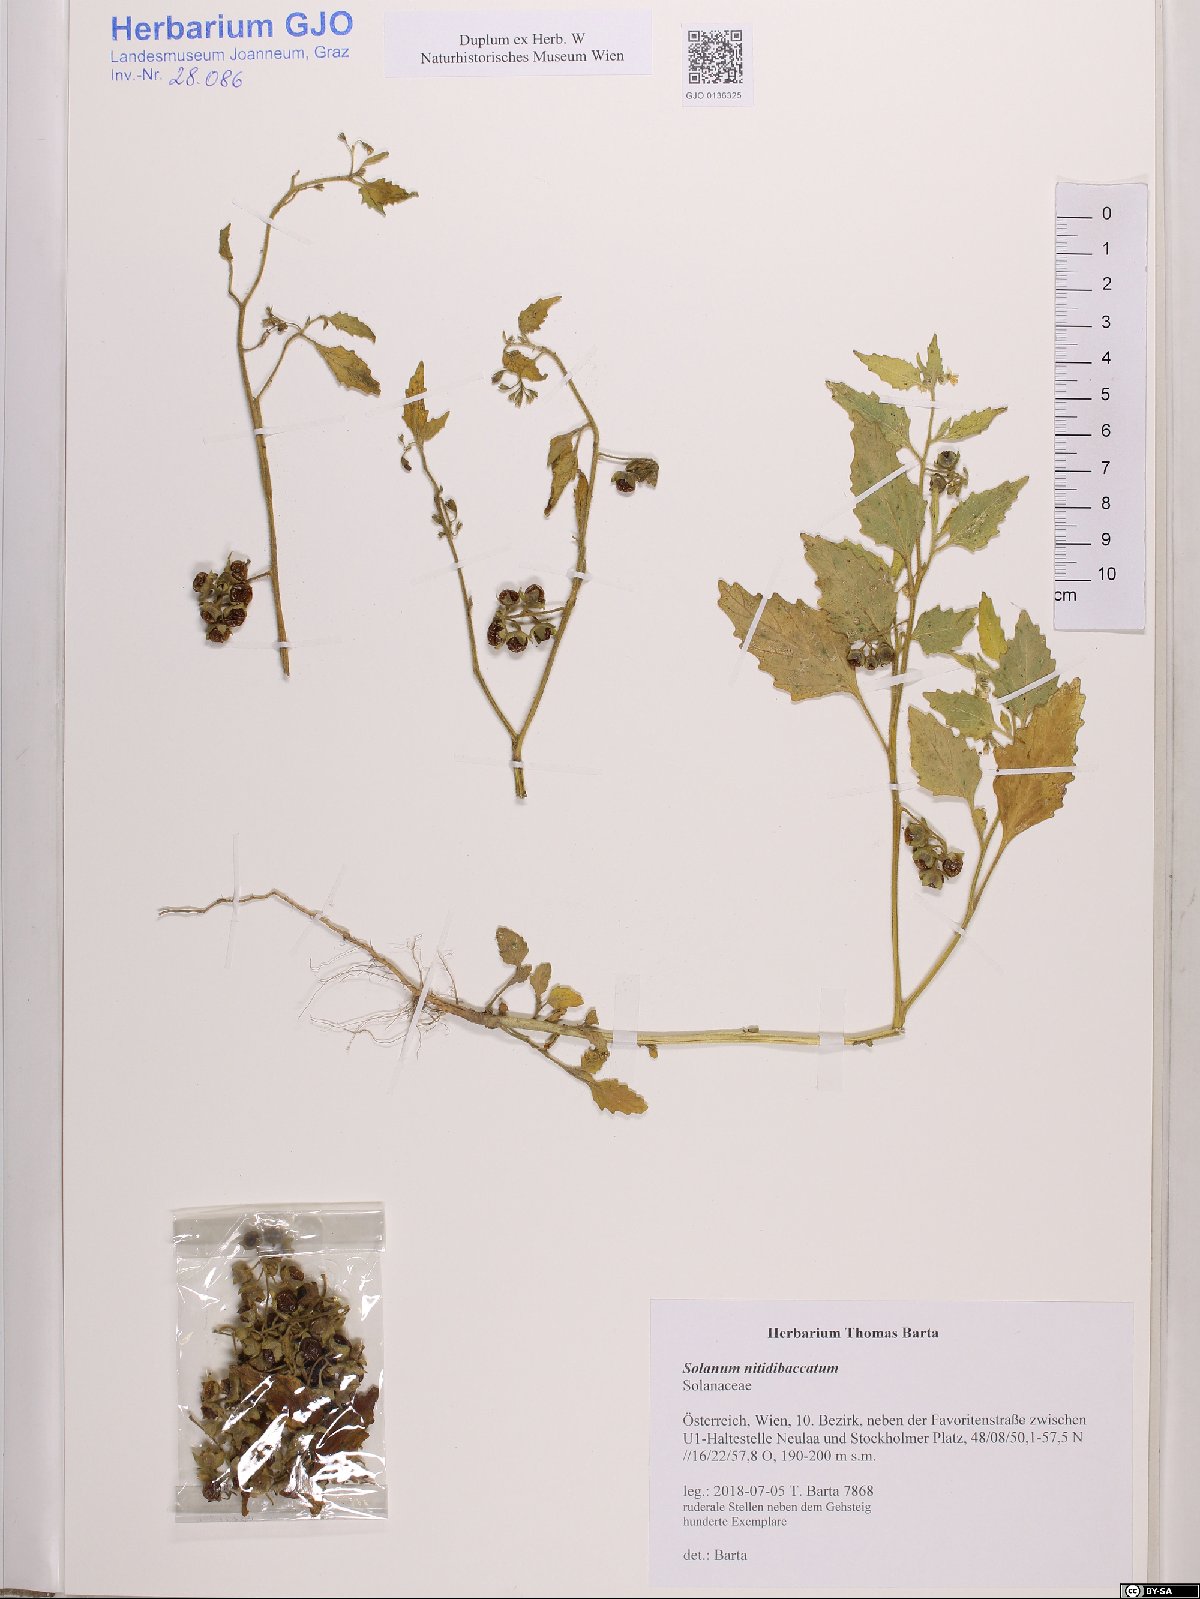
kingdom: Plantae
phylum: Tracheophyta
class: Magnoliopsida
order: Solanales
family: Solanaceae
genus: Solanum
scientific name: Solanum nitidibaccatum
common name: Hairy nightshade
